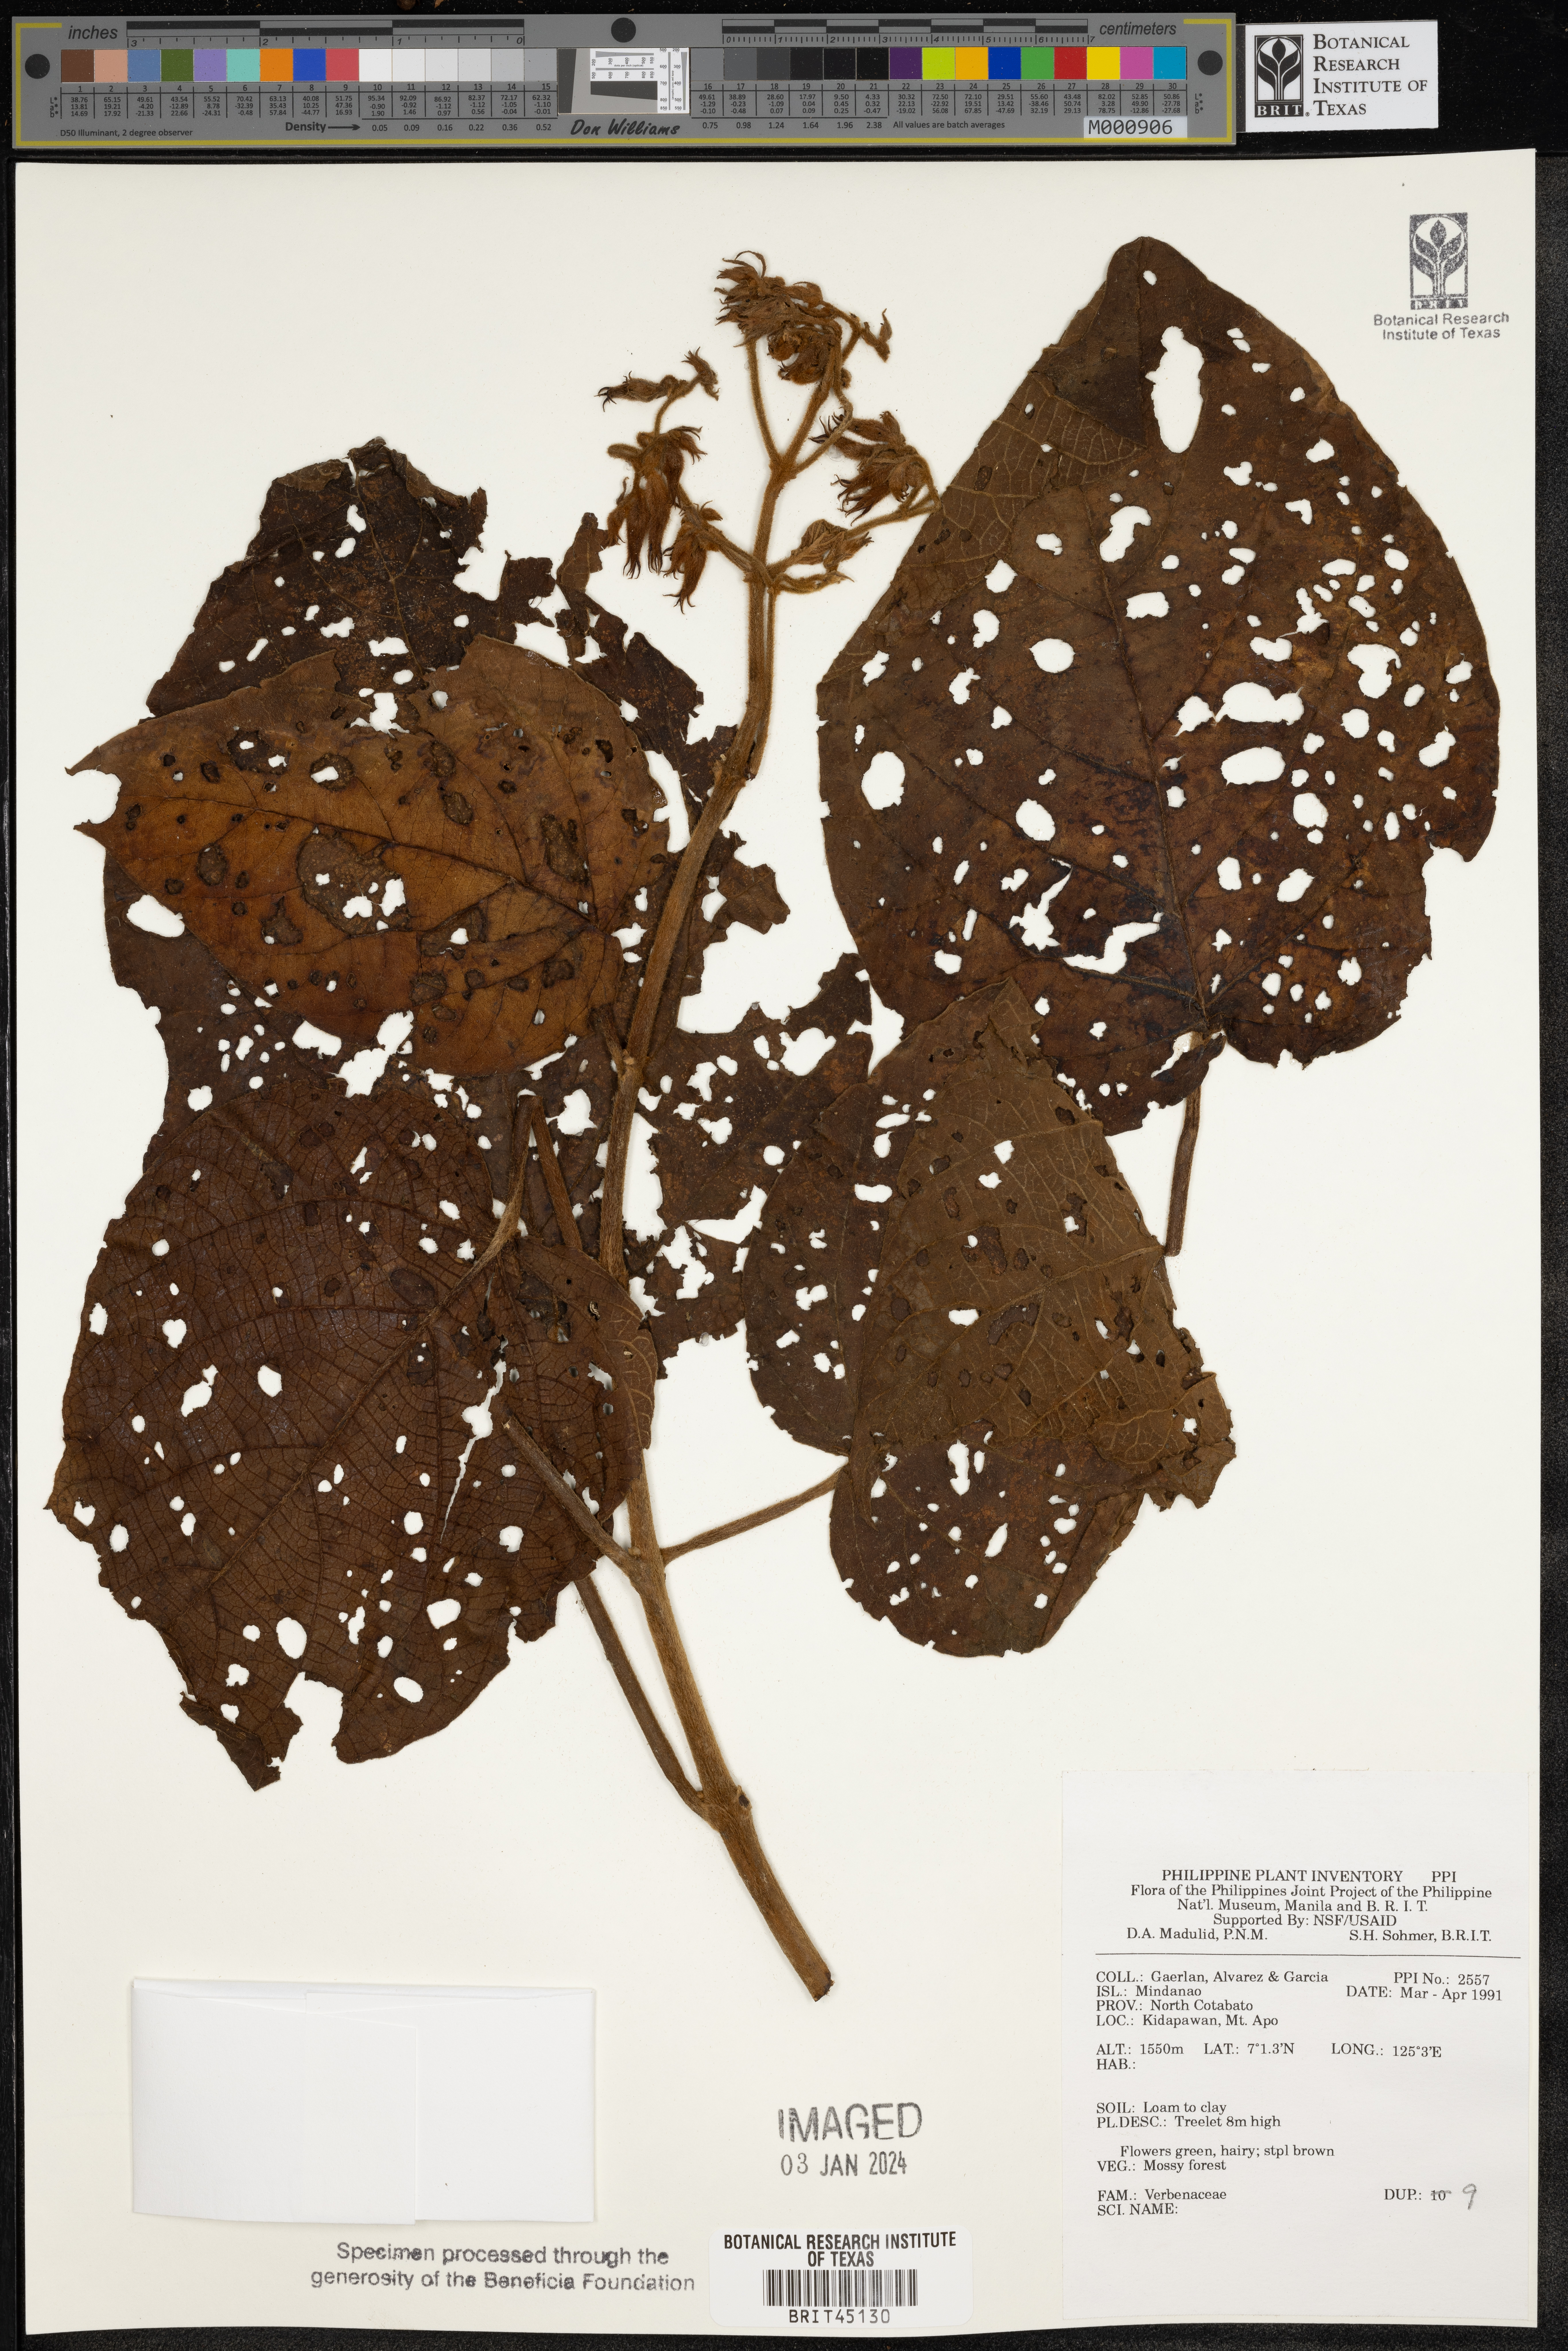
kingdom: Plantae
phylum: Tracheophyta
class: Magnoliopsida
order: Lamiales
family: Verbenaceae
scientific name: Verbenaceae
